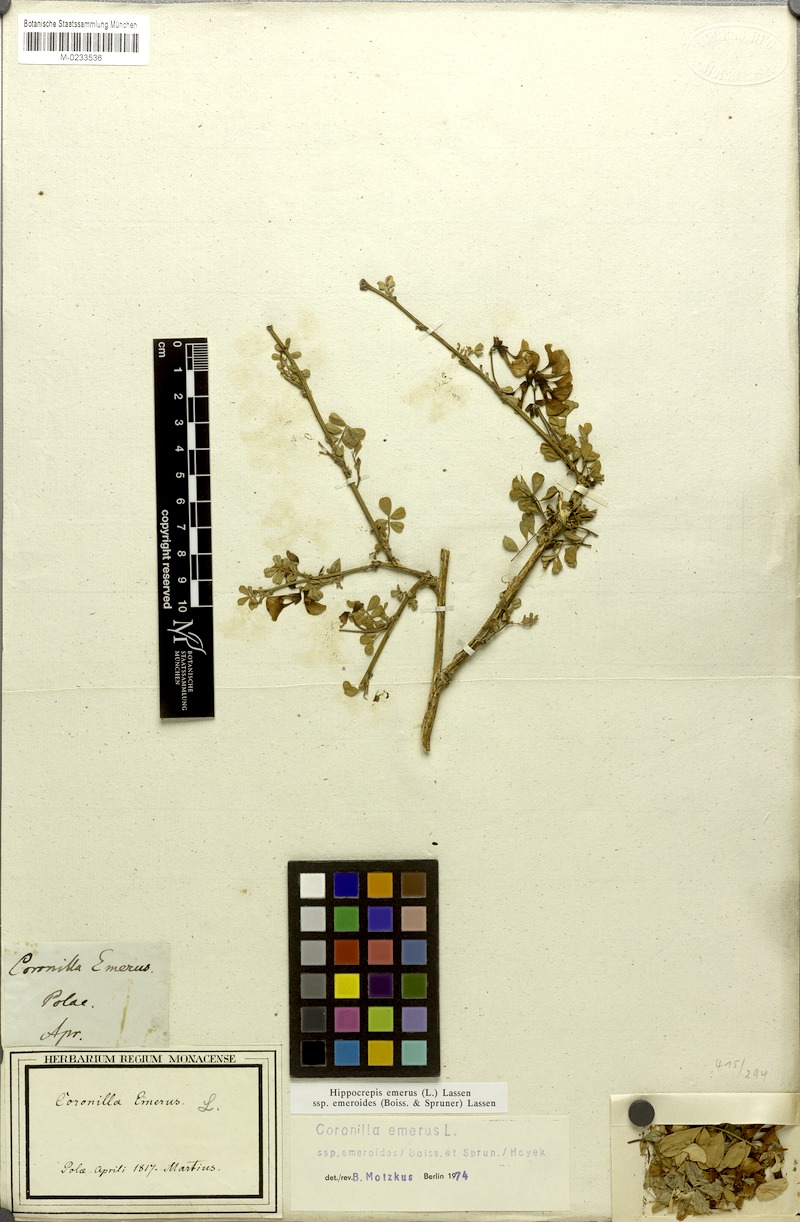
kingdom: Plantae
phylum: Tracheophyta
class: Magnoliopsida
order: Fabales
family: Fabaceae
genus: Hippocrepis
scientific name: Hippocrepis emerus
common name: Scorpion senna
